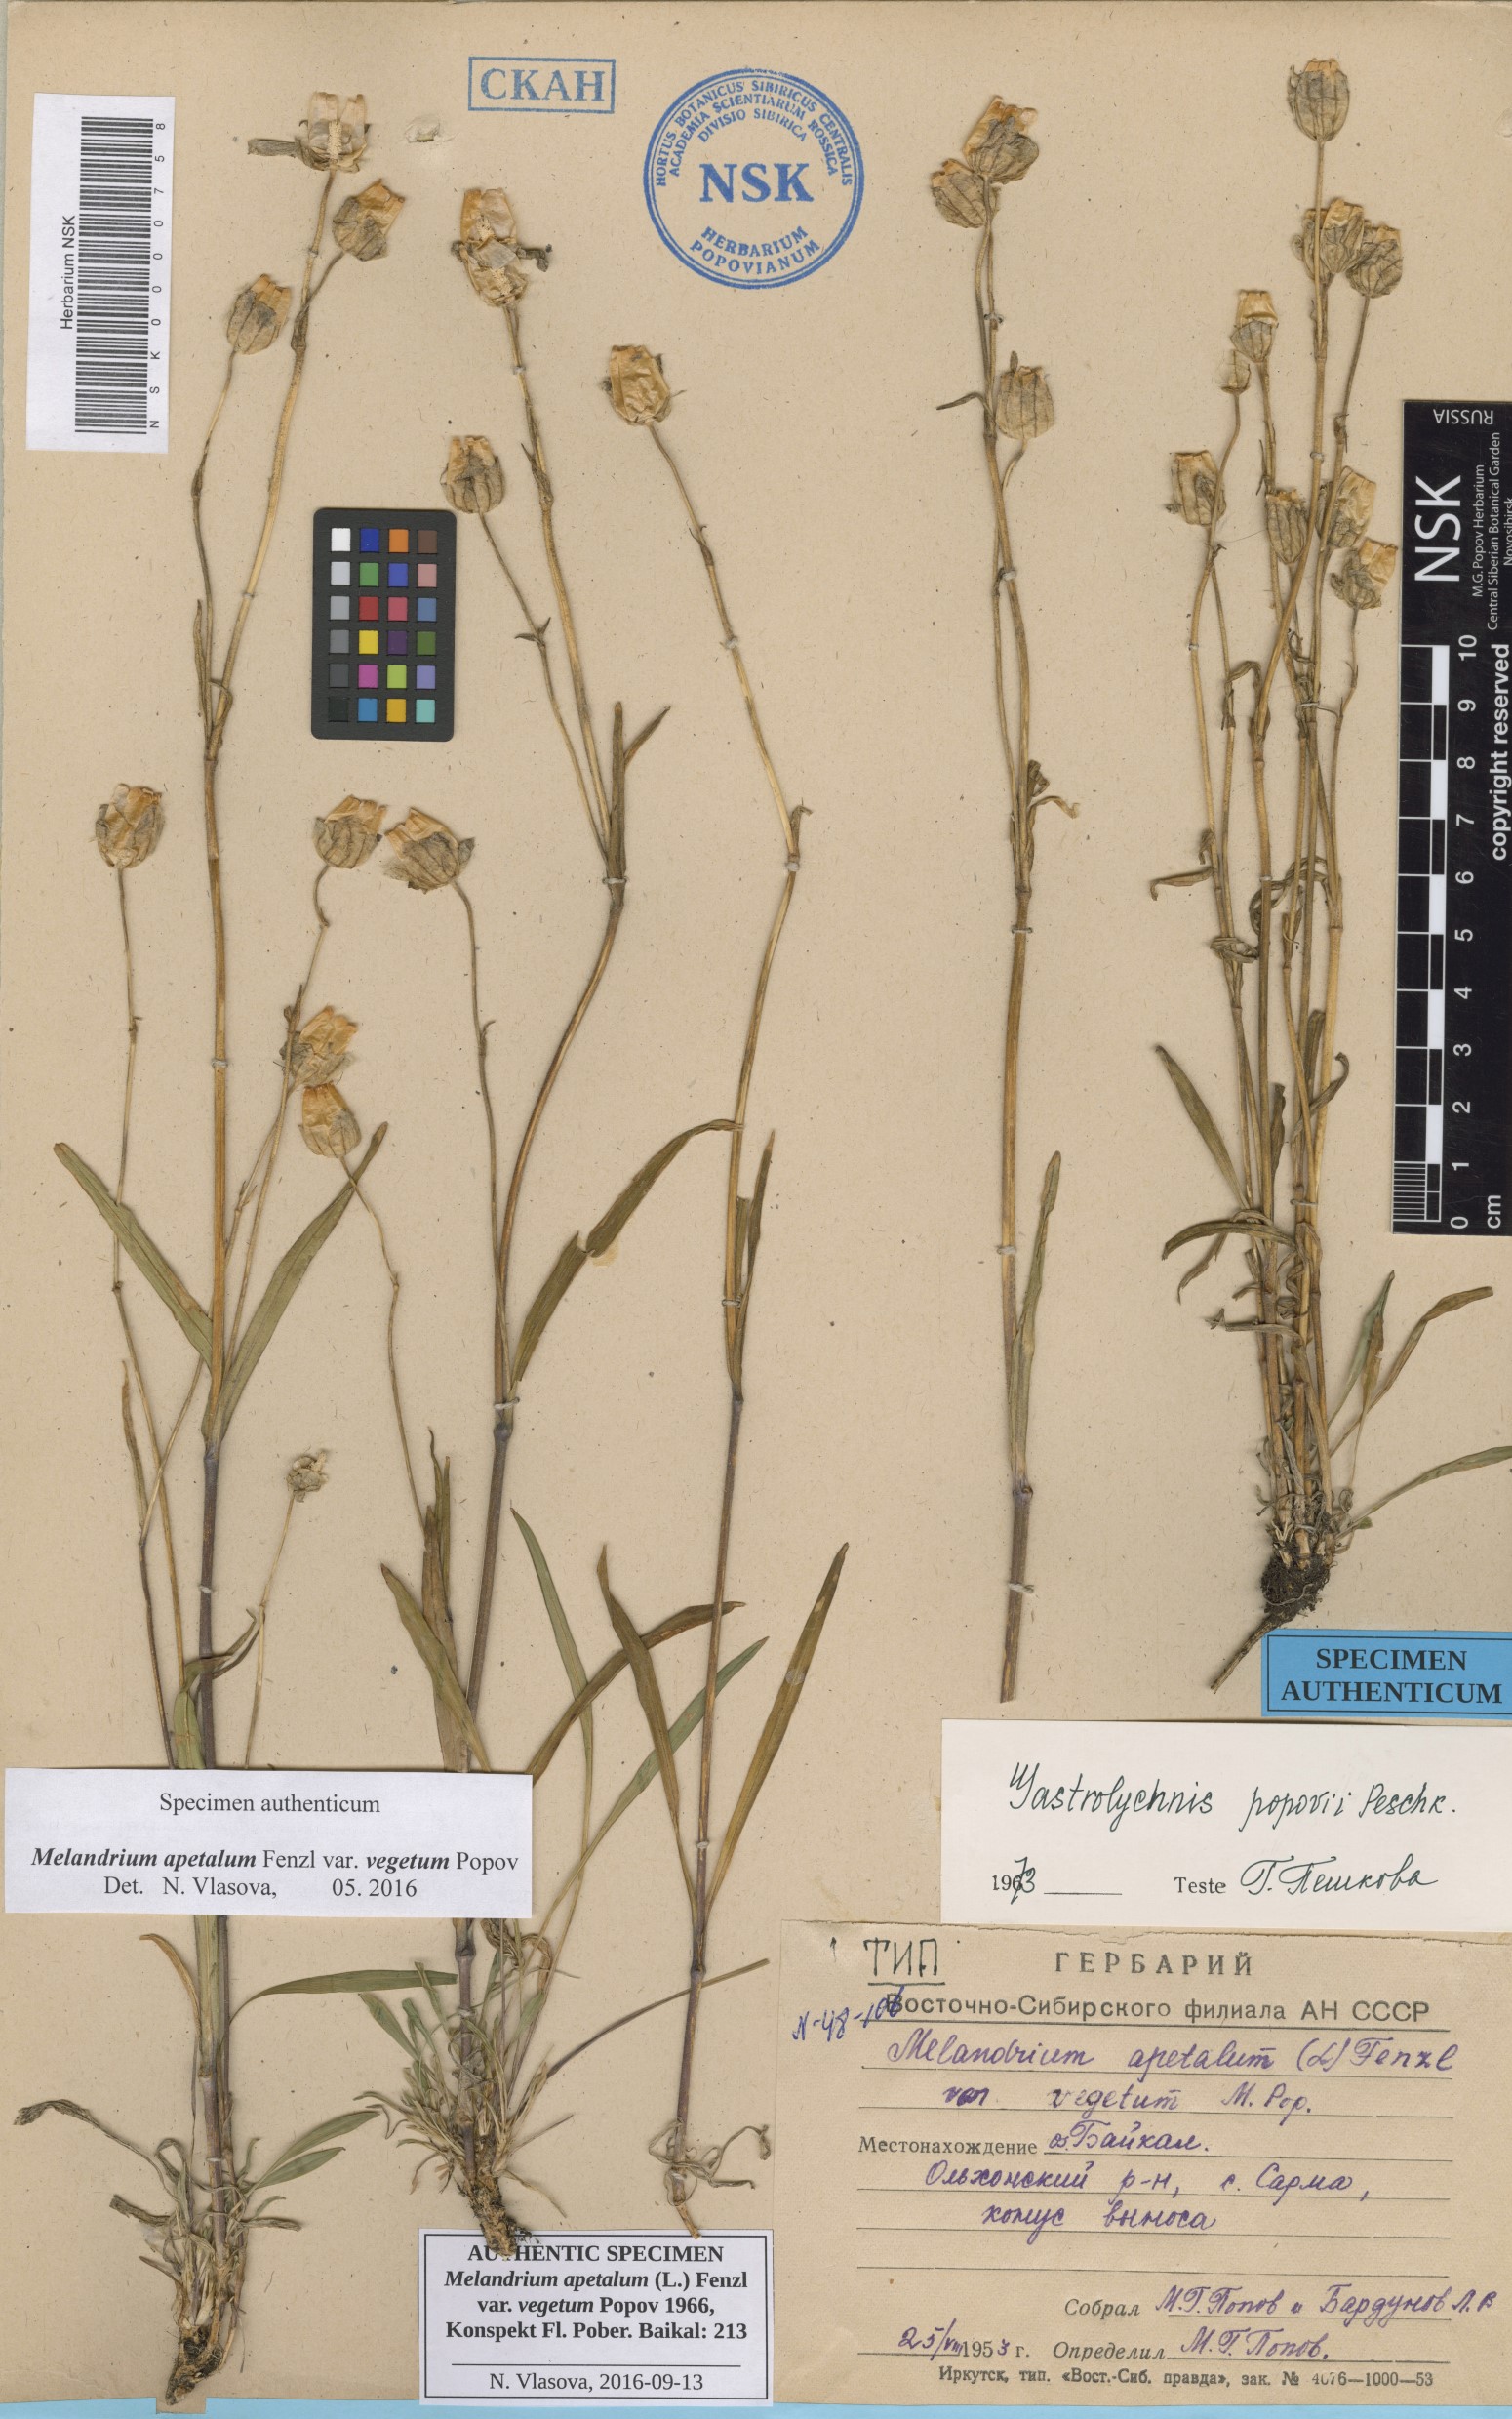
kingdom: Plantae
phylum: Tracheophyta
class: Magnoliopsida
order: Caryophyllales
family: Caryophyllaceae
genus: Silene
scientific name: Silene wahlbergella
